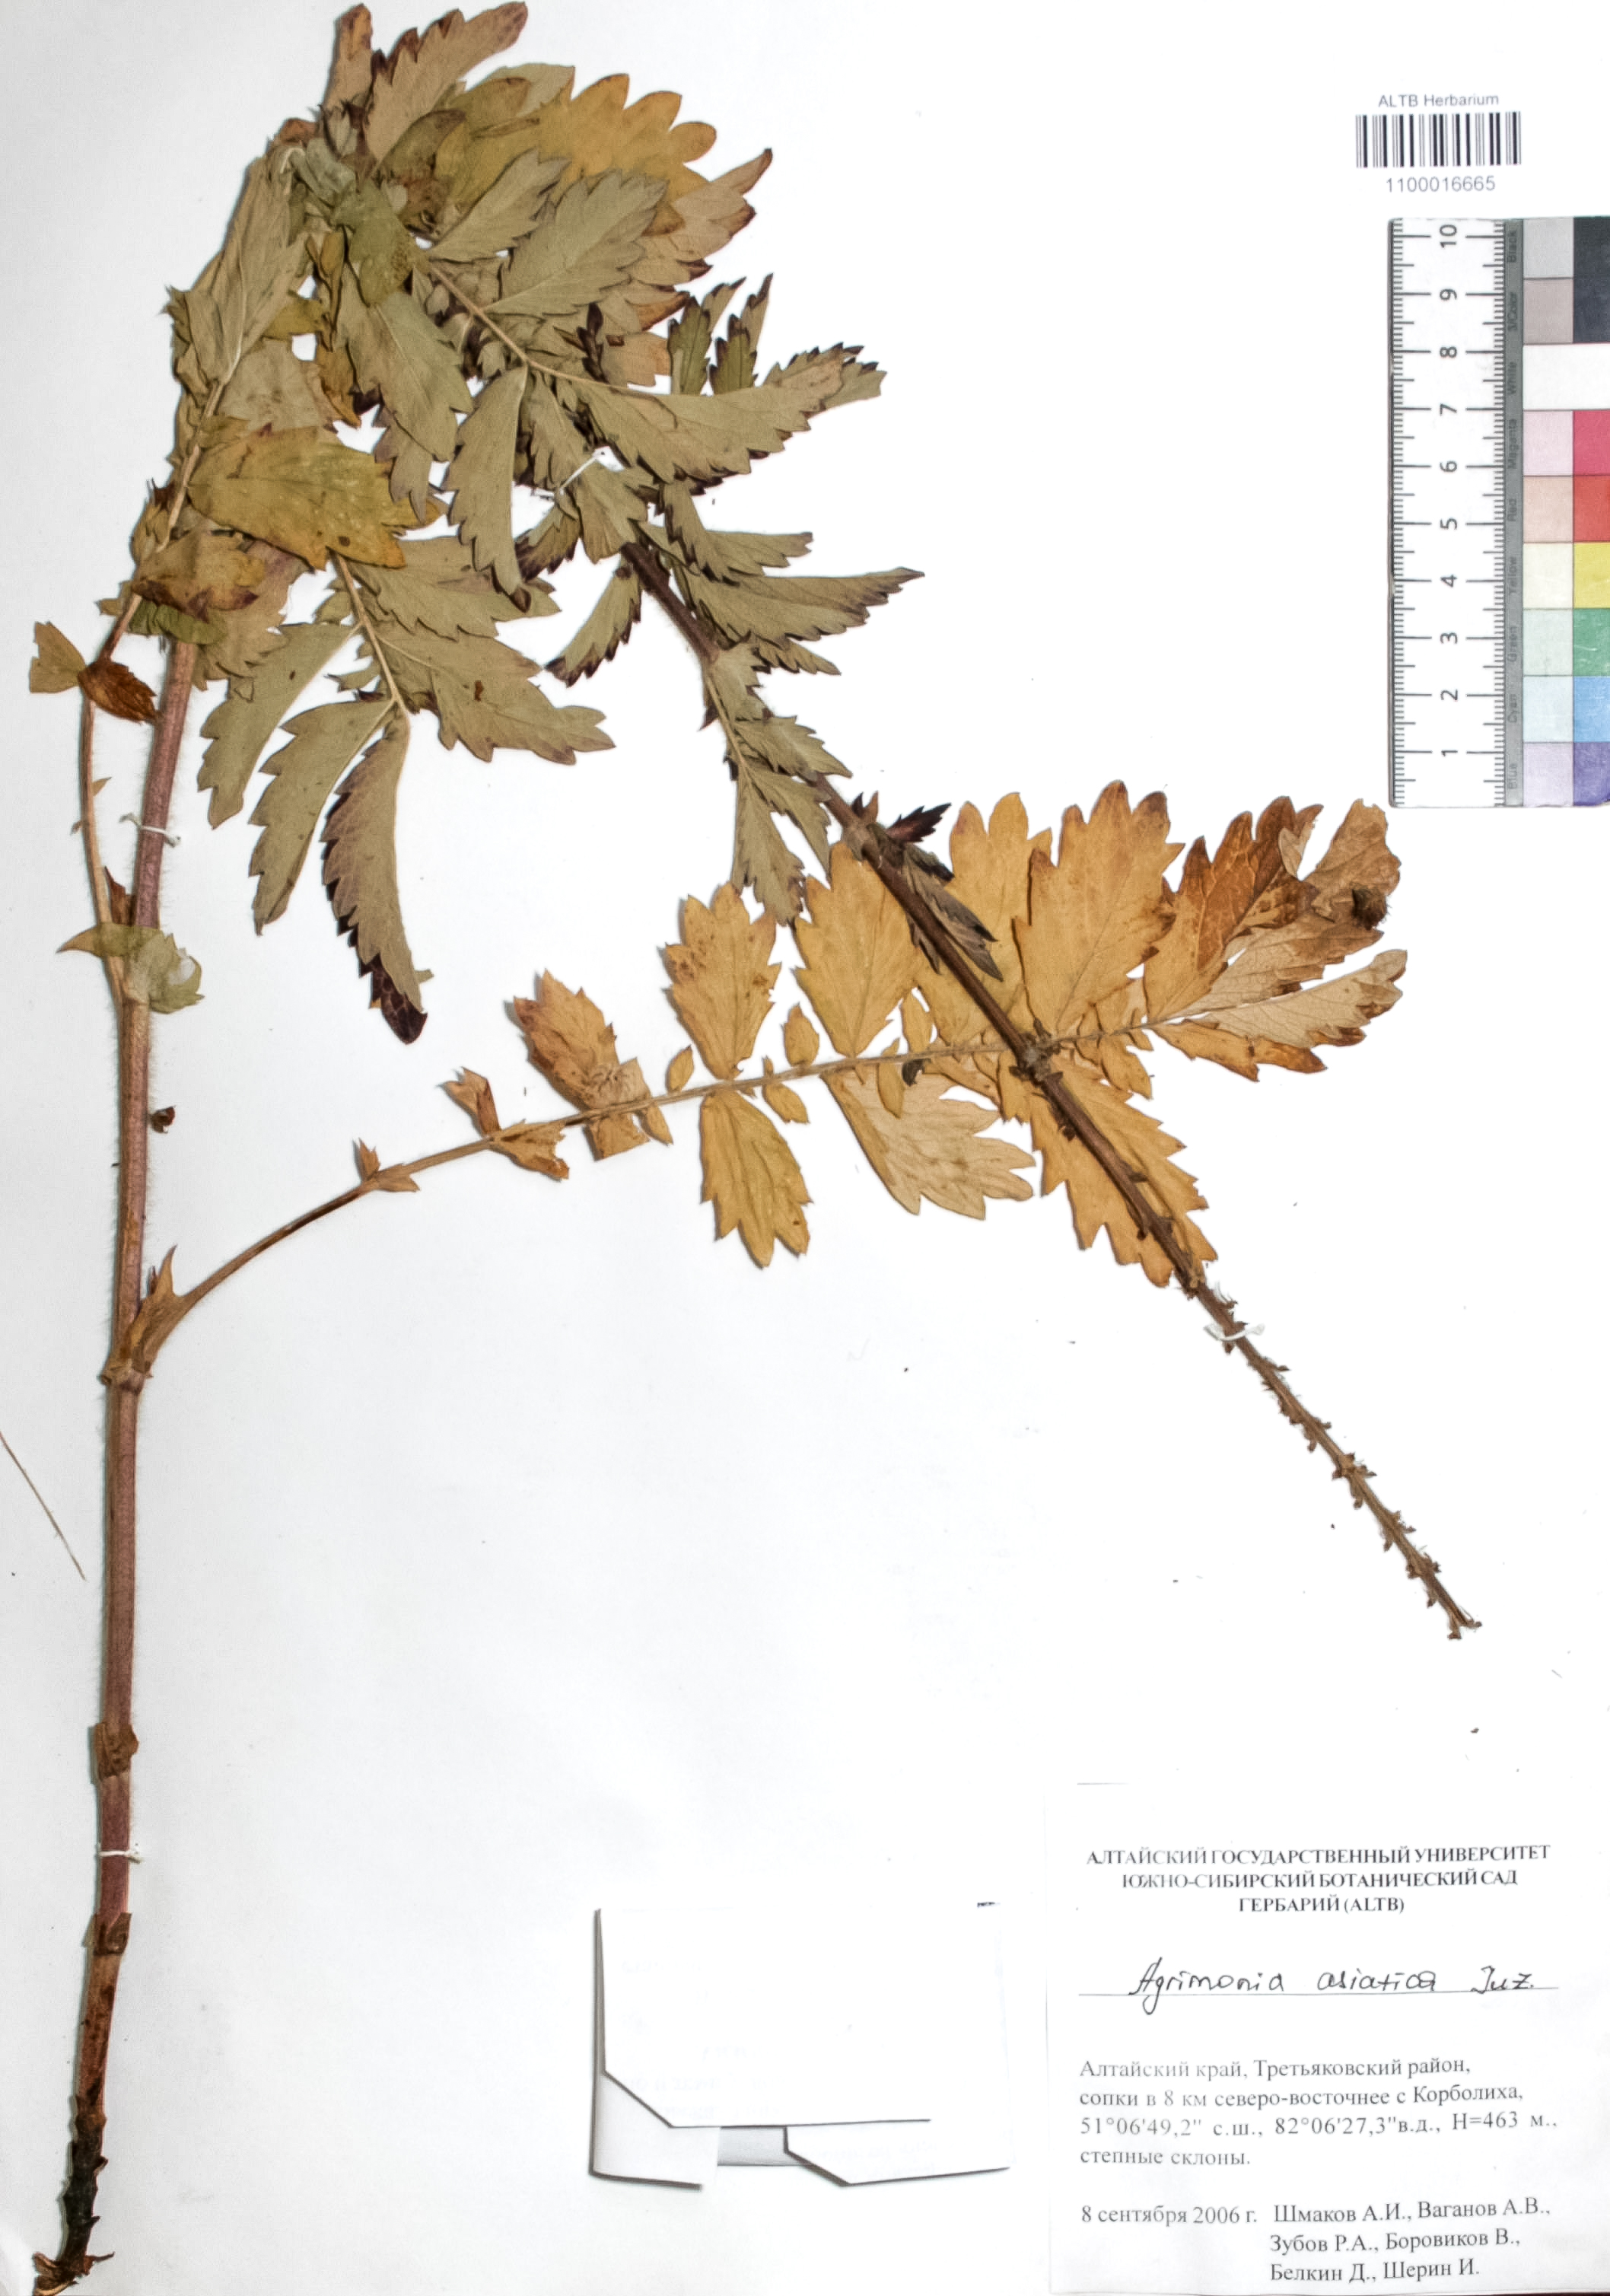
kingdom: Plantae
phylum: Tracheophyta
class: Magnoliopsida
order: Rosales
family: Rosaceae
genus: Agrimonia
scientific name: Agrimonia eupatoria
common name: Agrimony
